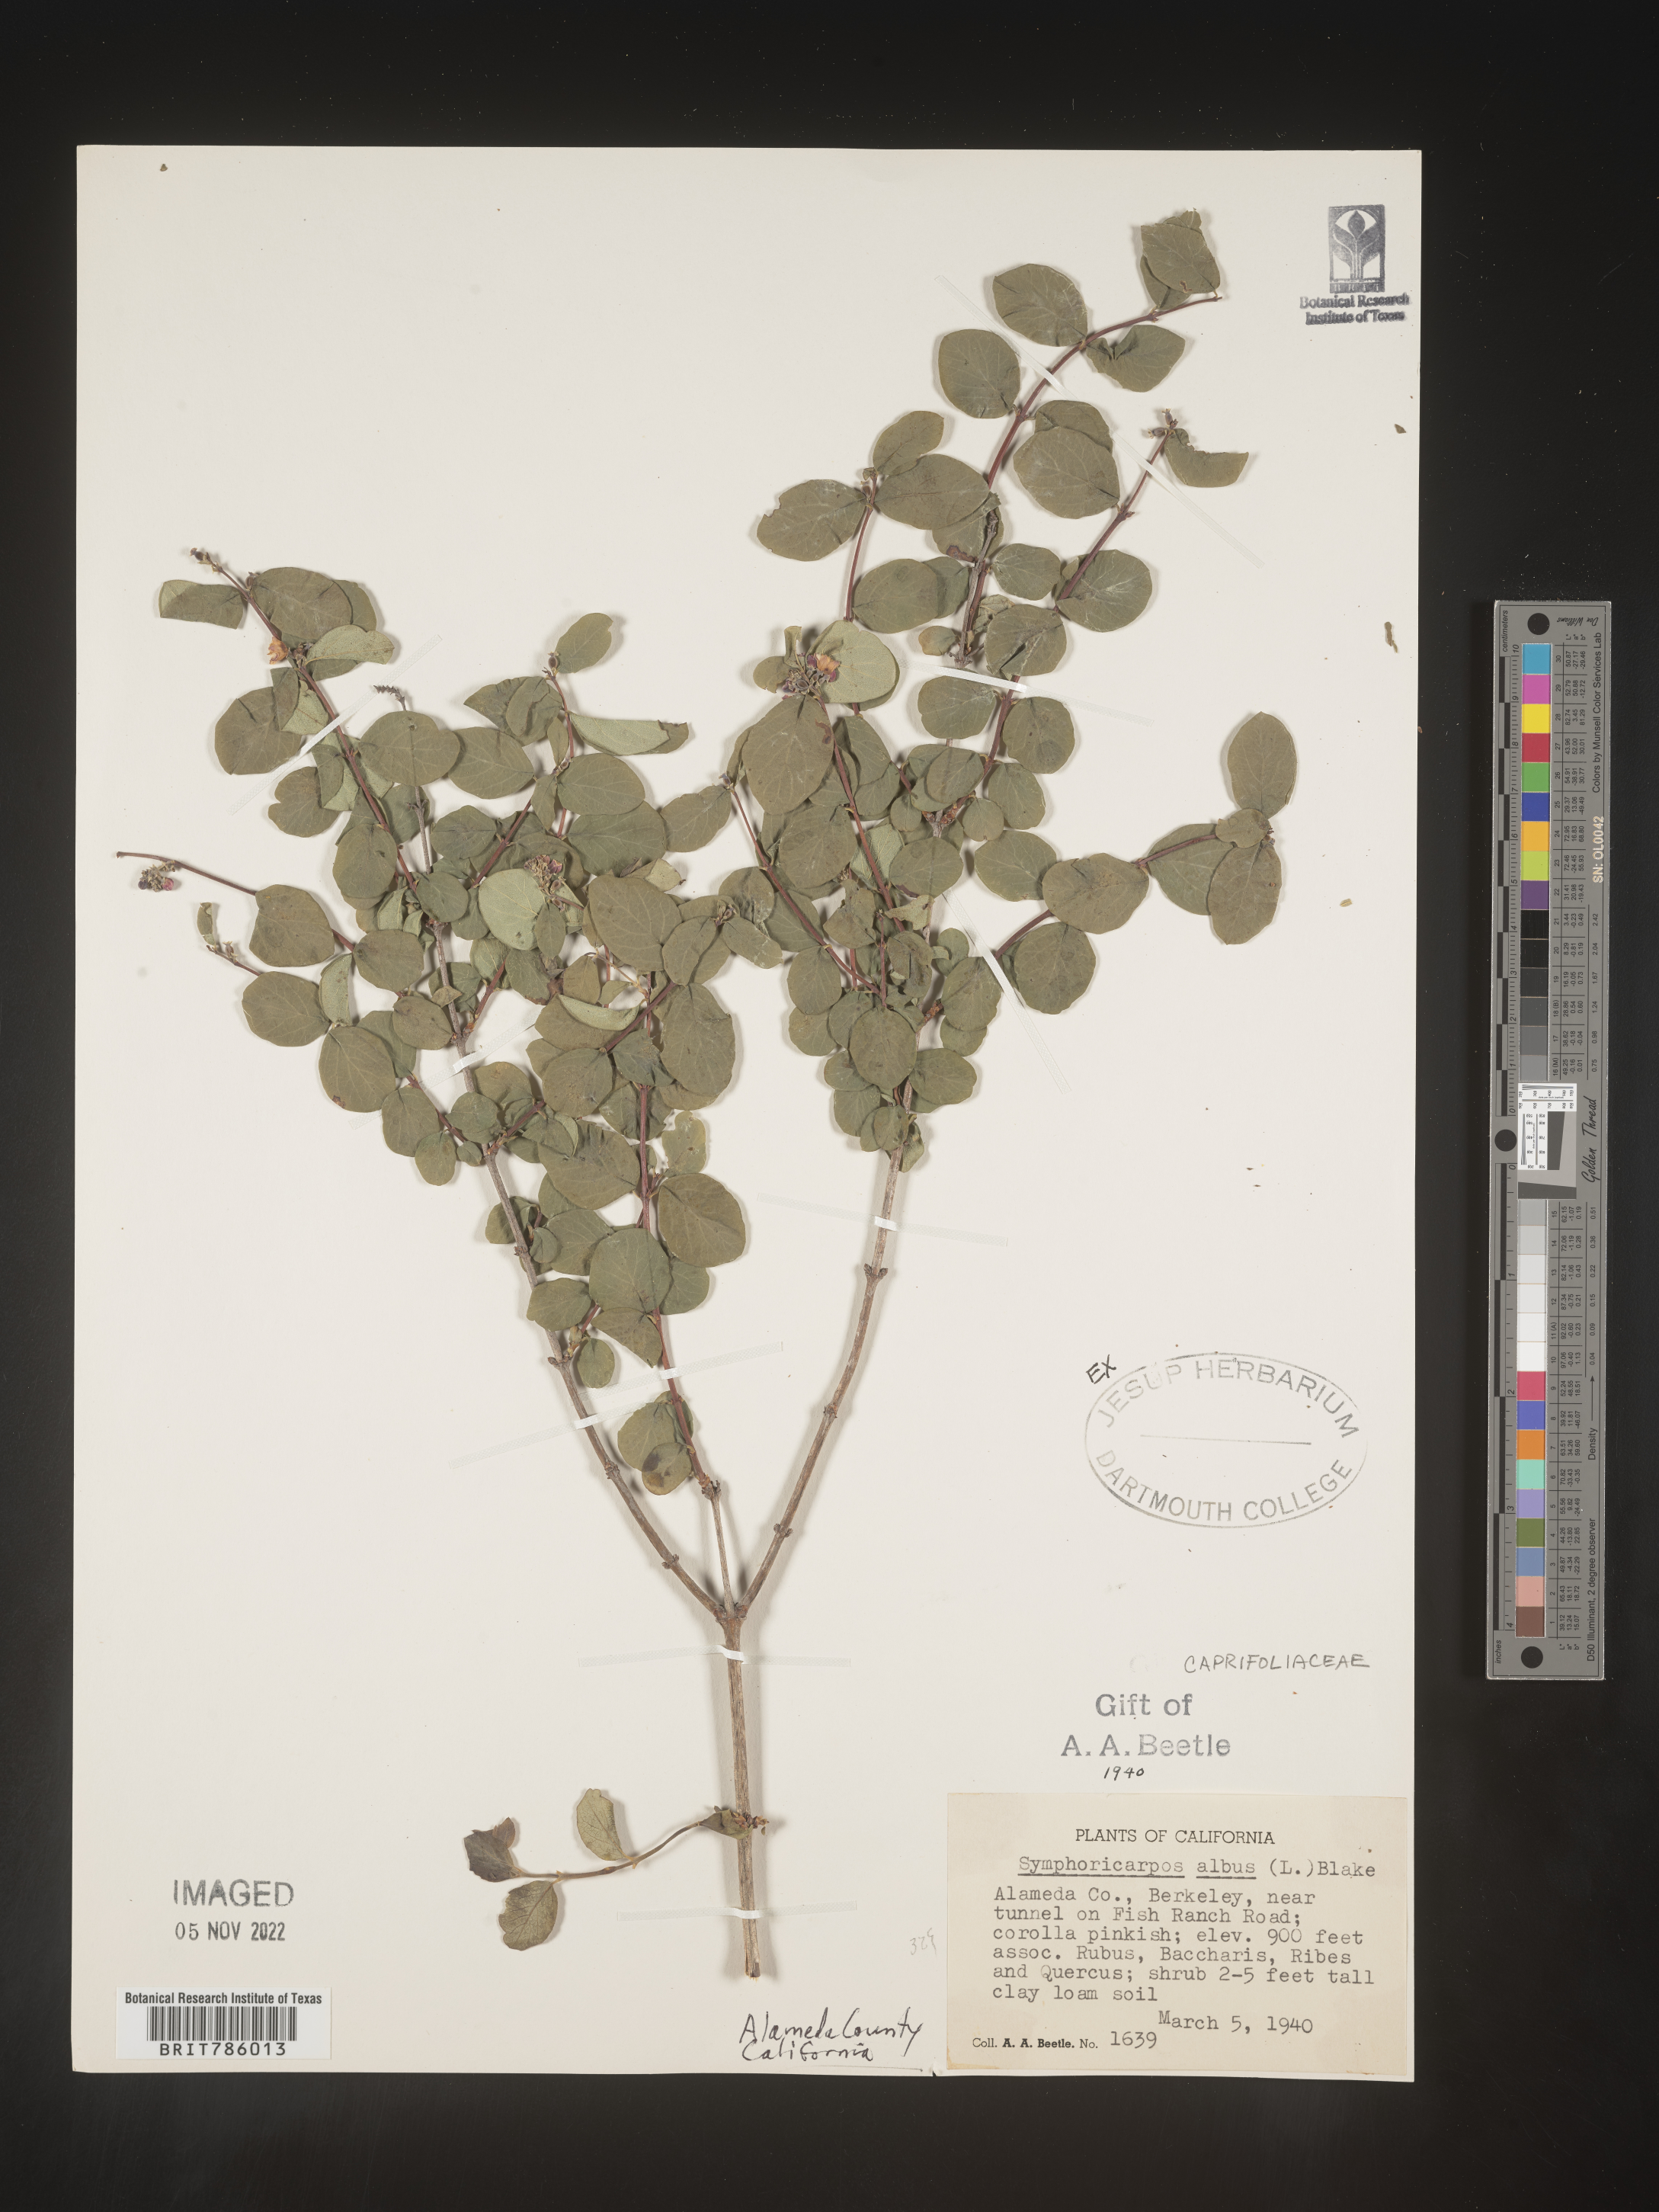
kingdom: Plantae
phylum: Tracheophyta
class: Magnoliopsida
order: Dipsacales
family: Caprifoliaceae
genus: Symphoricarpos
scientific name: Symphoricarpos albus
